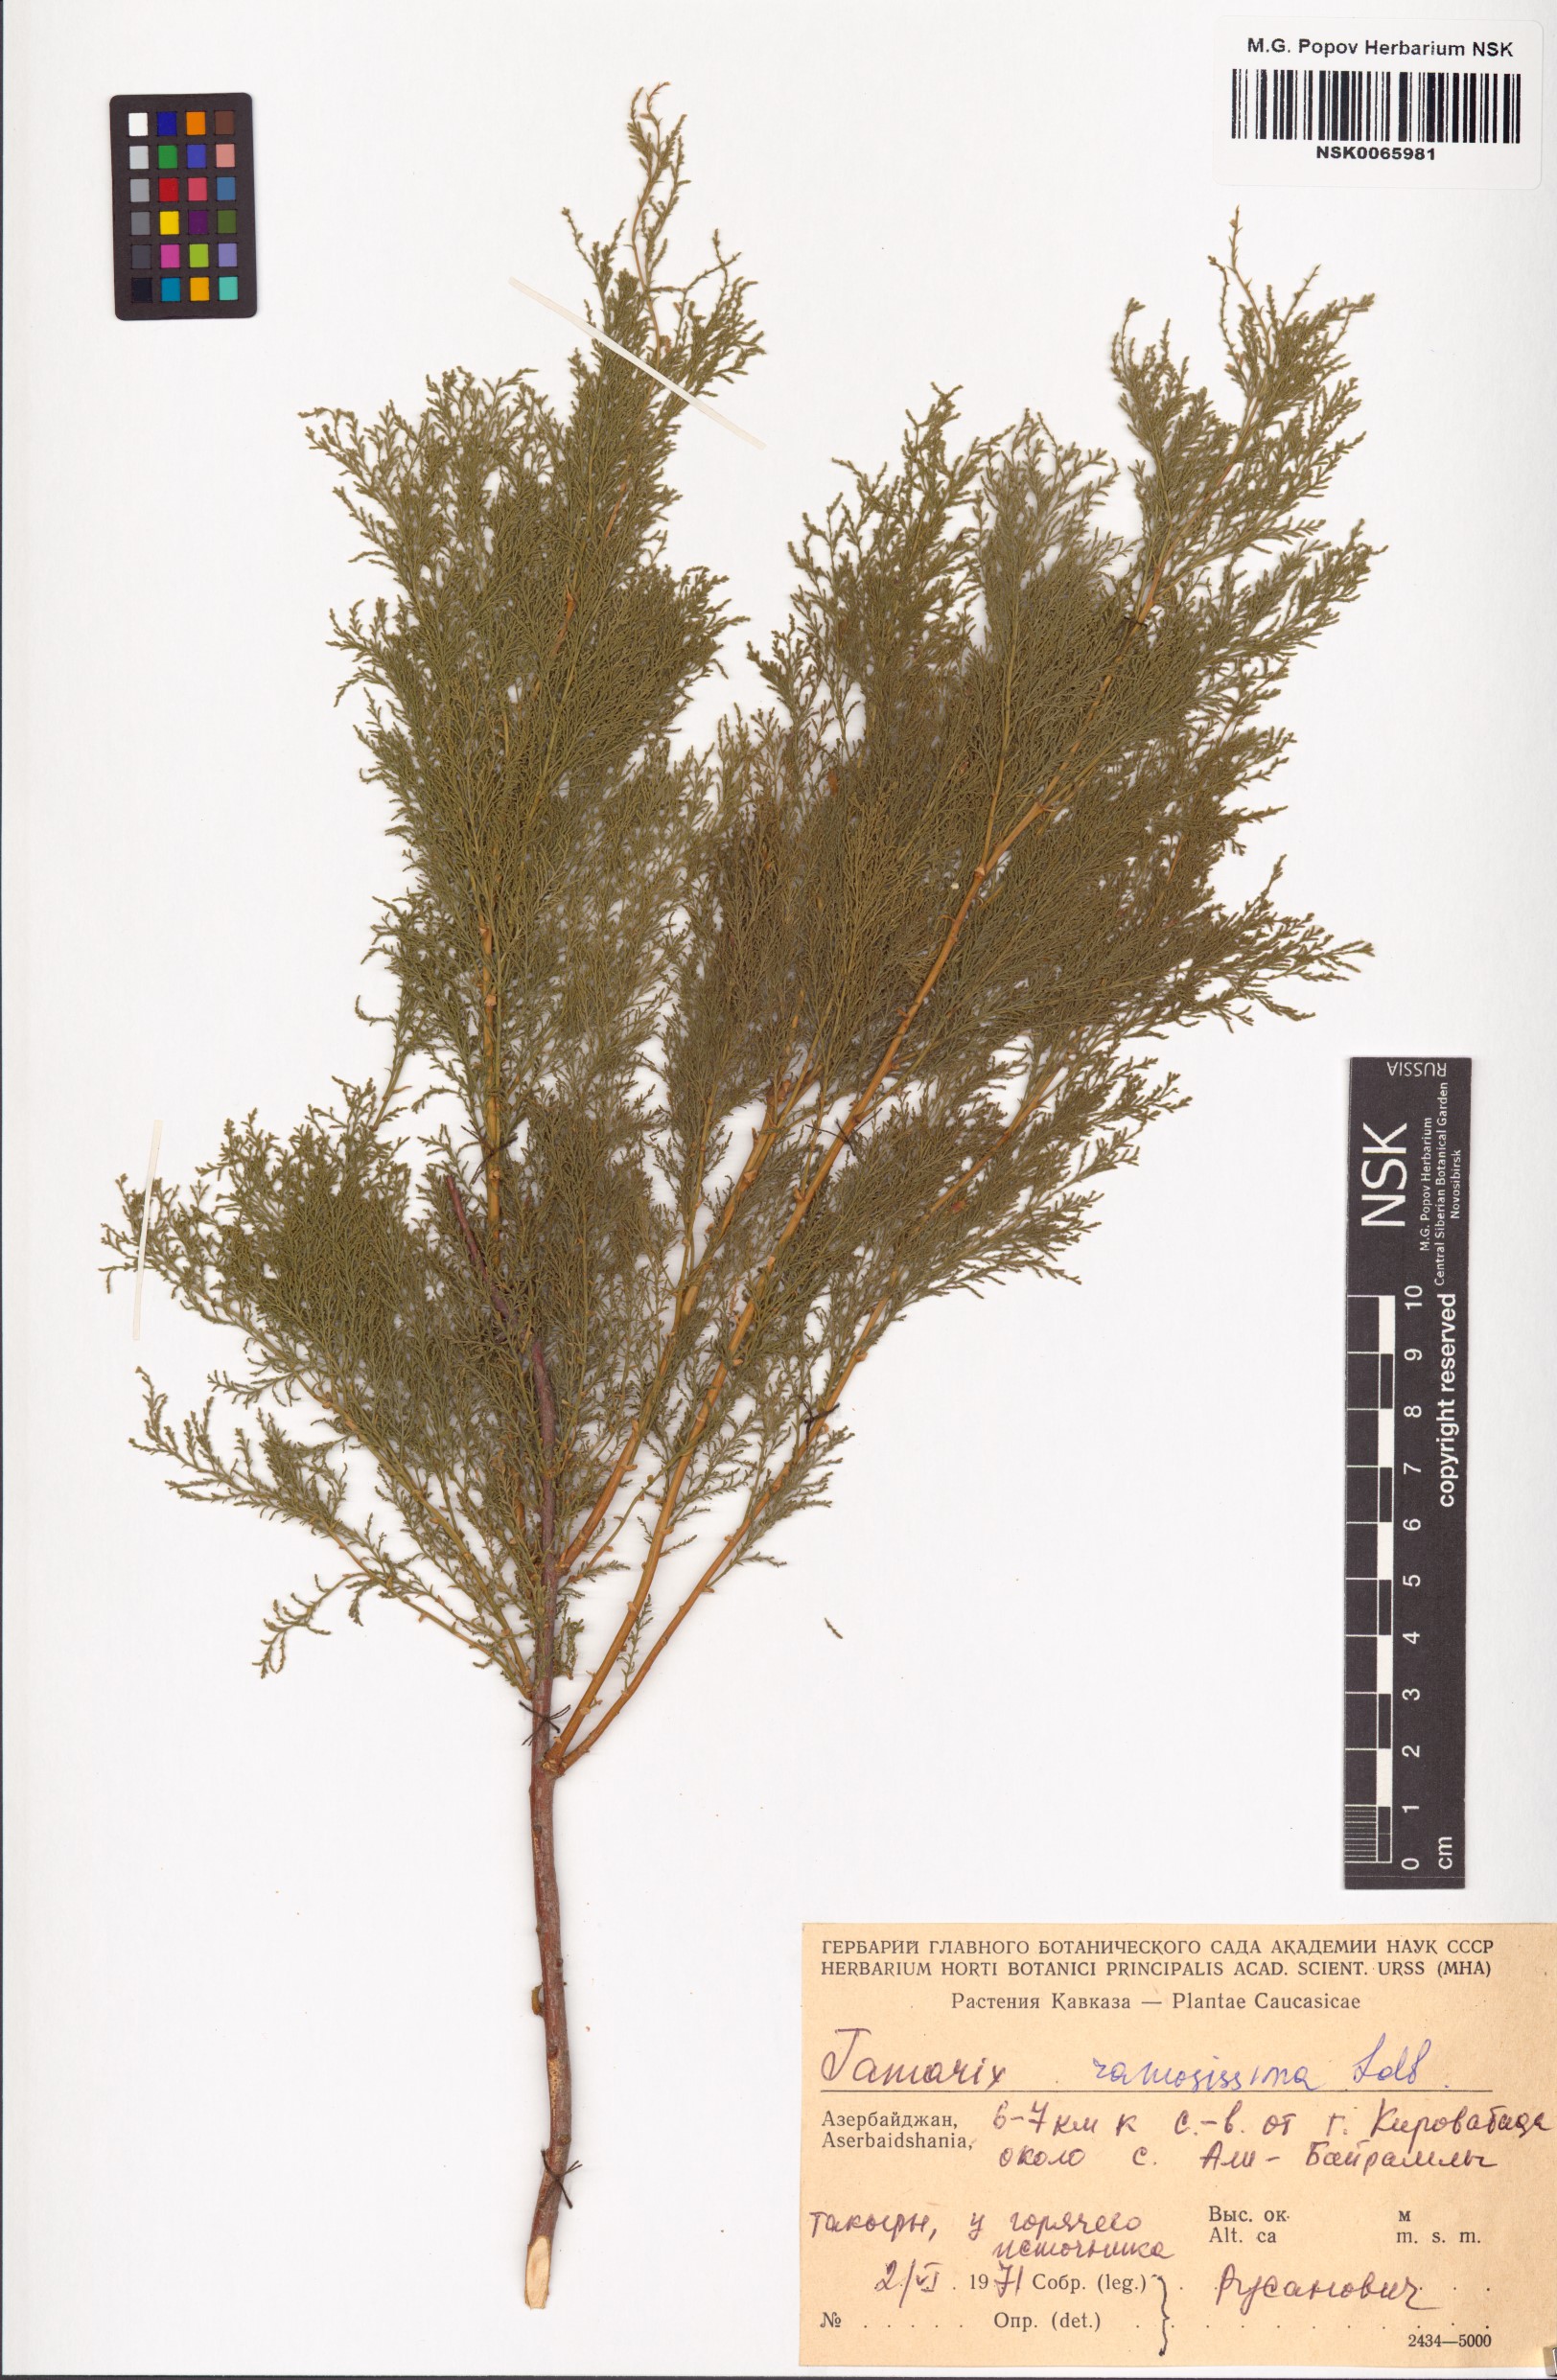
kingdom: Plantae
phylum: Tracheophyta
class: Magnoliopsida
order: Caryophyllales
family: Tamaricaceae
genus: Tamarix
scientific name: Tamarix ramosissima
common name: Pink tamarisk
